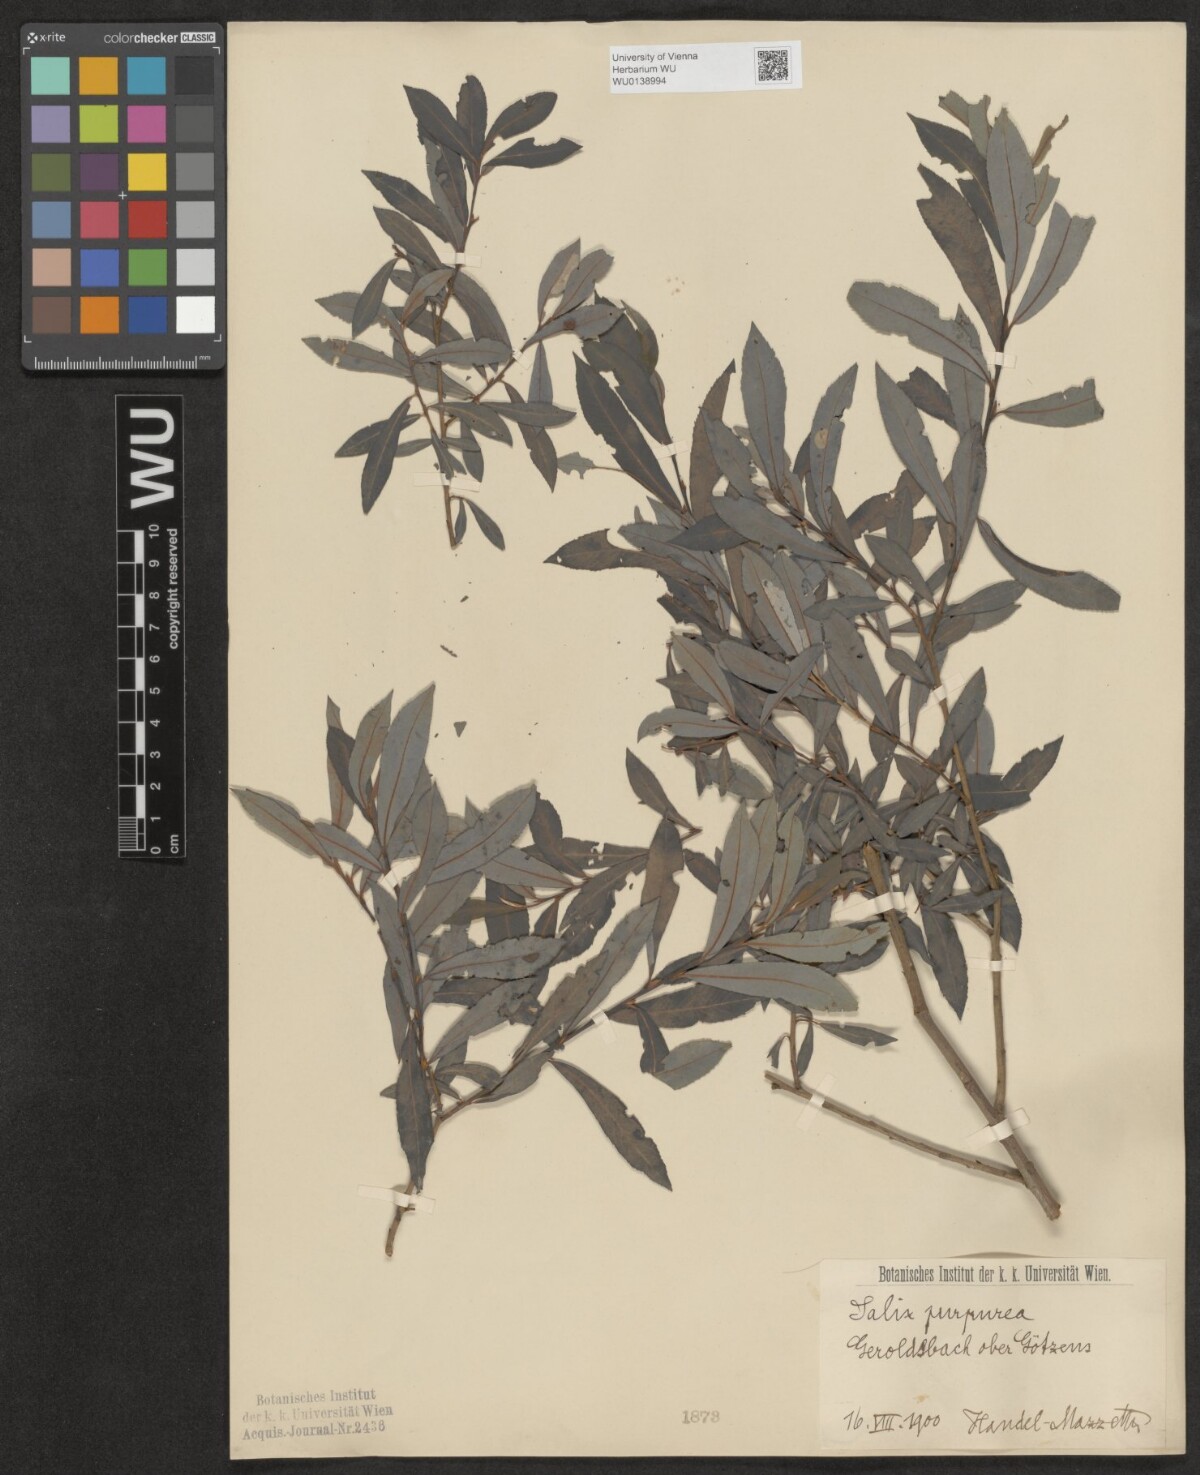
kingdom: Plantae
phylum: Tracheophyta
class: Magnoliopsida
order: Malpighiales
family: Salicaceae
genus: Salix
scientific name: Salix purpurea
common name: Purple willow
